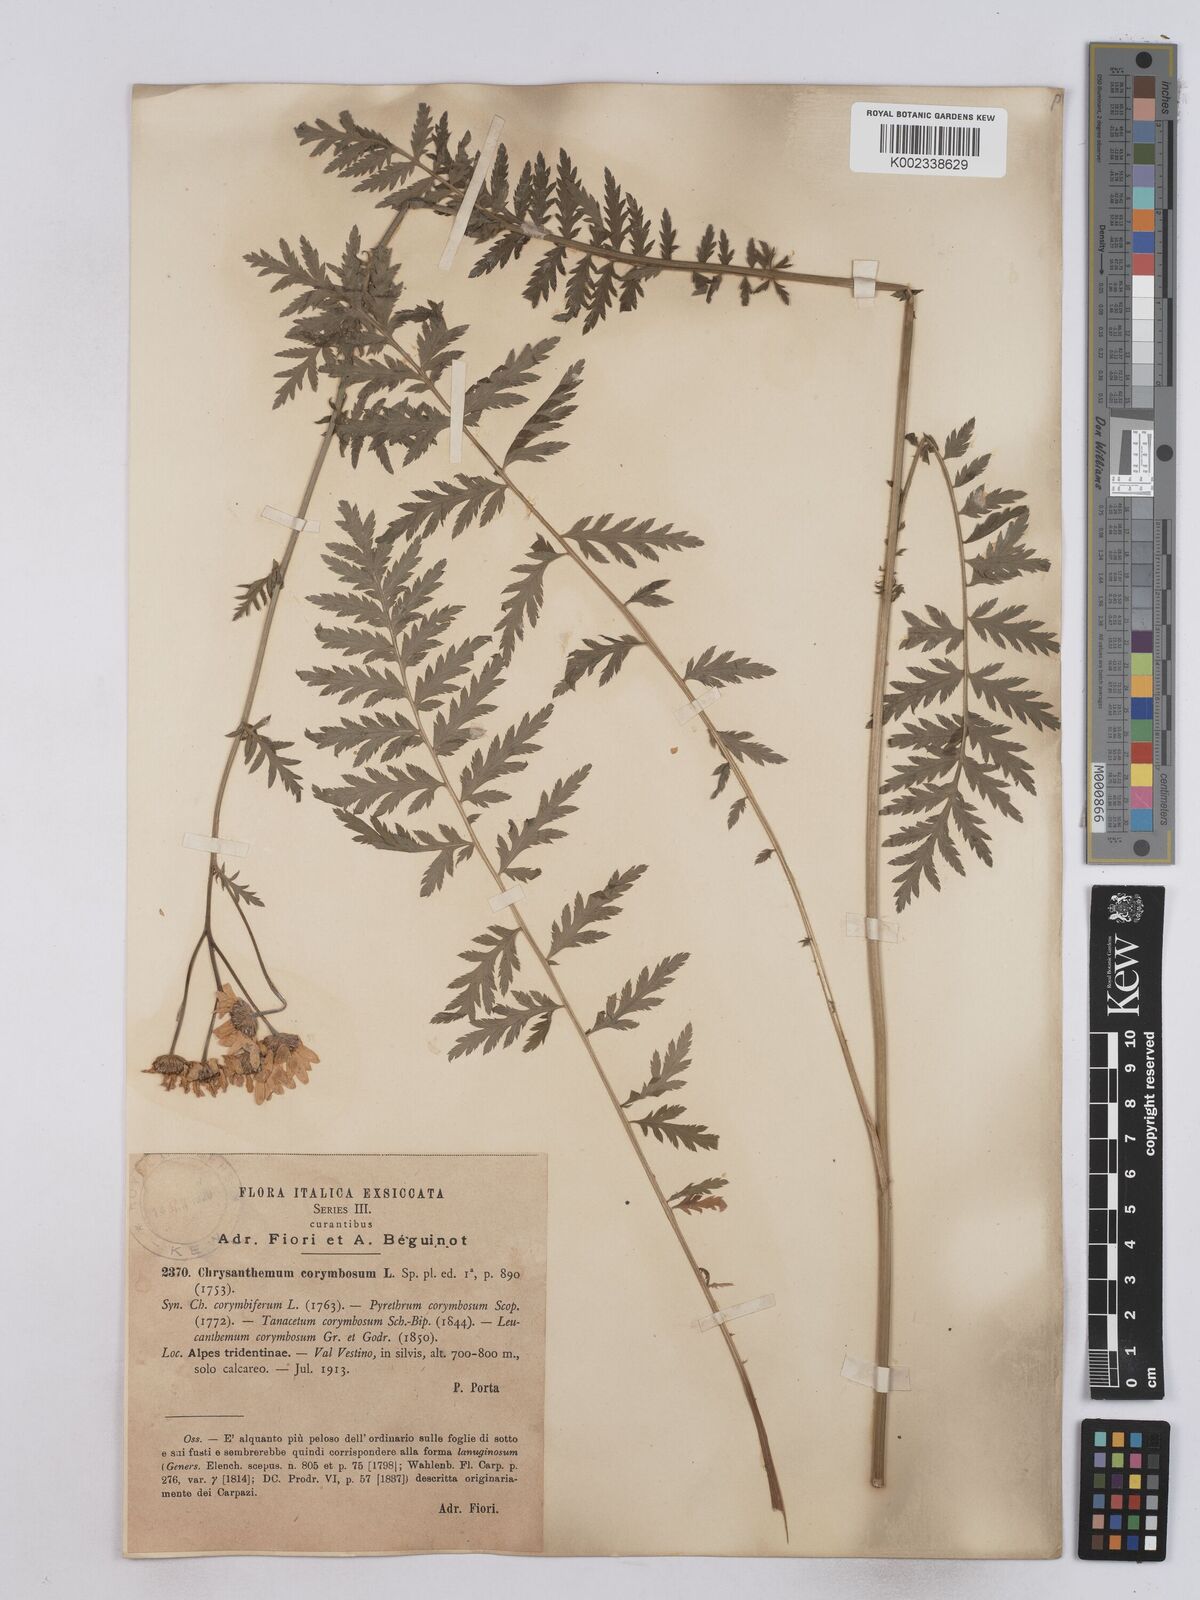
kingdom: Plantae
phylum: Tracheophyta
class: Magnoliopsida
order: Asterales
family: Asteraceae
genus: Tanacetum
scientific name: Tanacetum corymbosum
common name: Scentless feverfew
